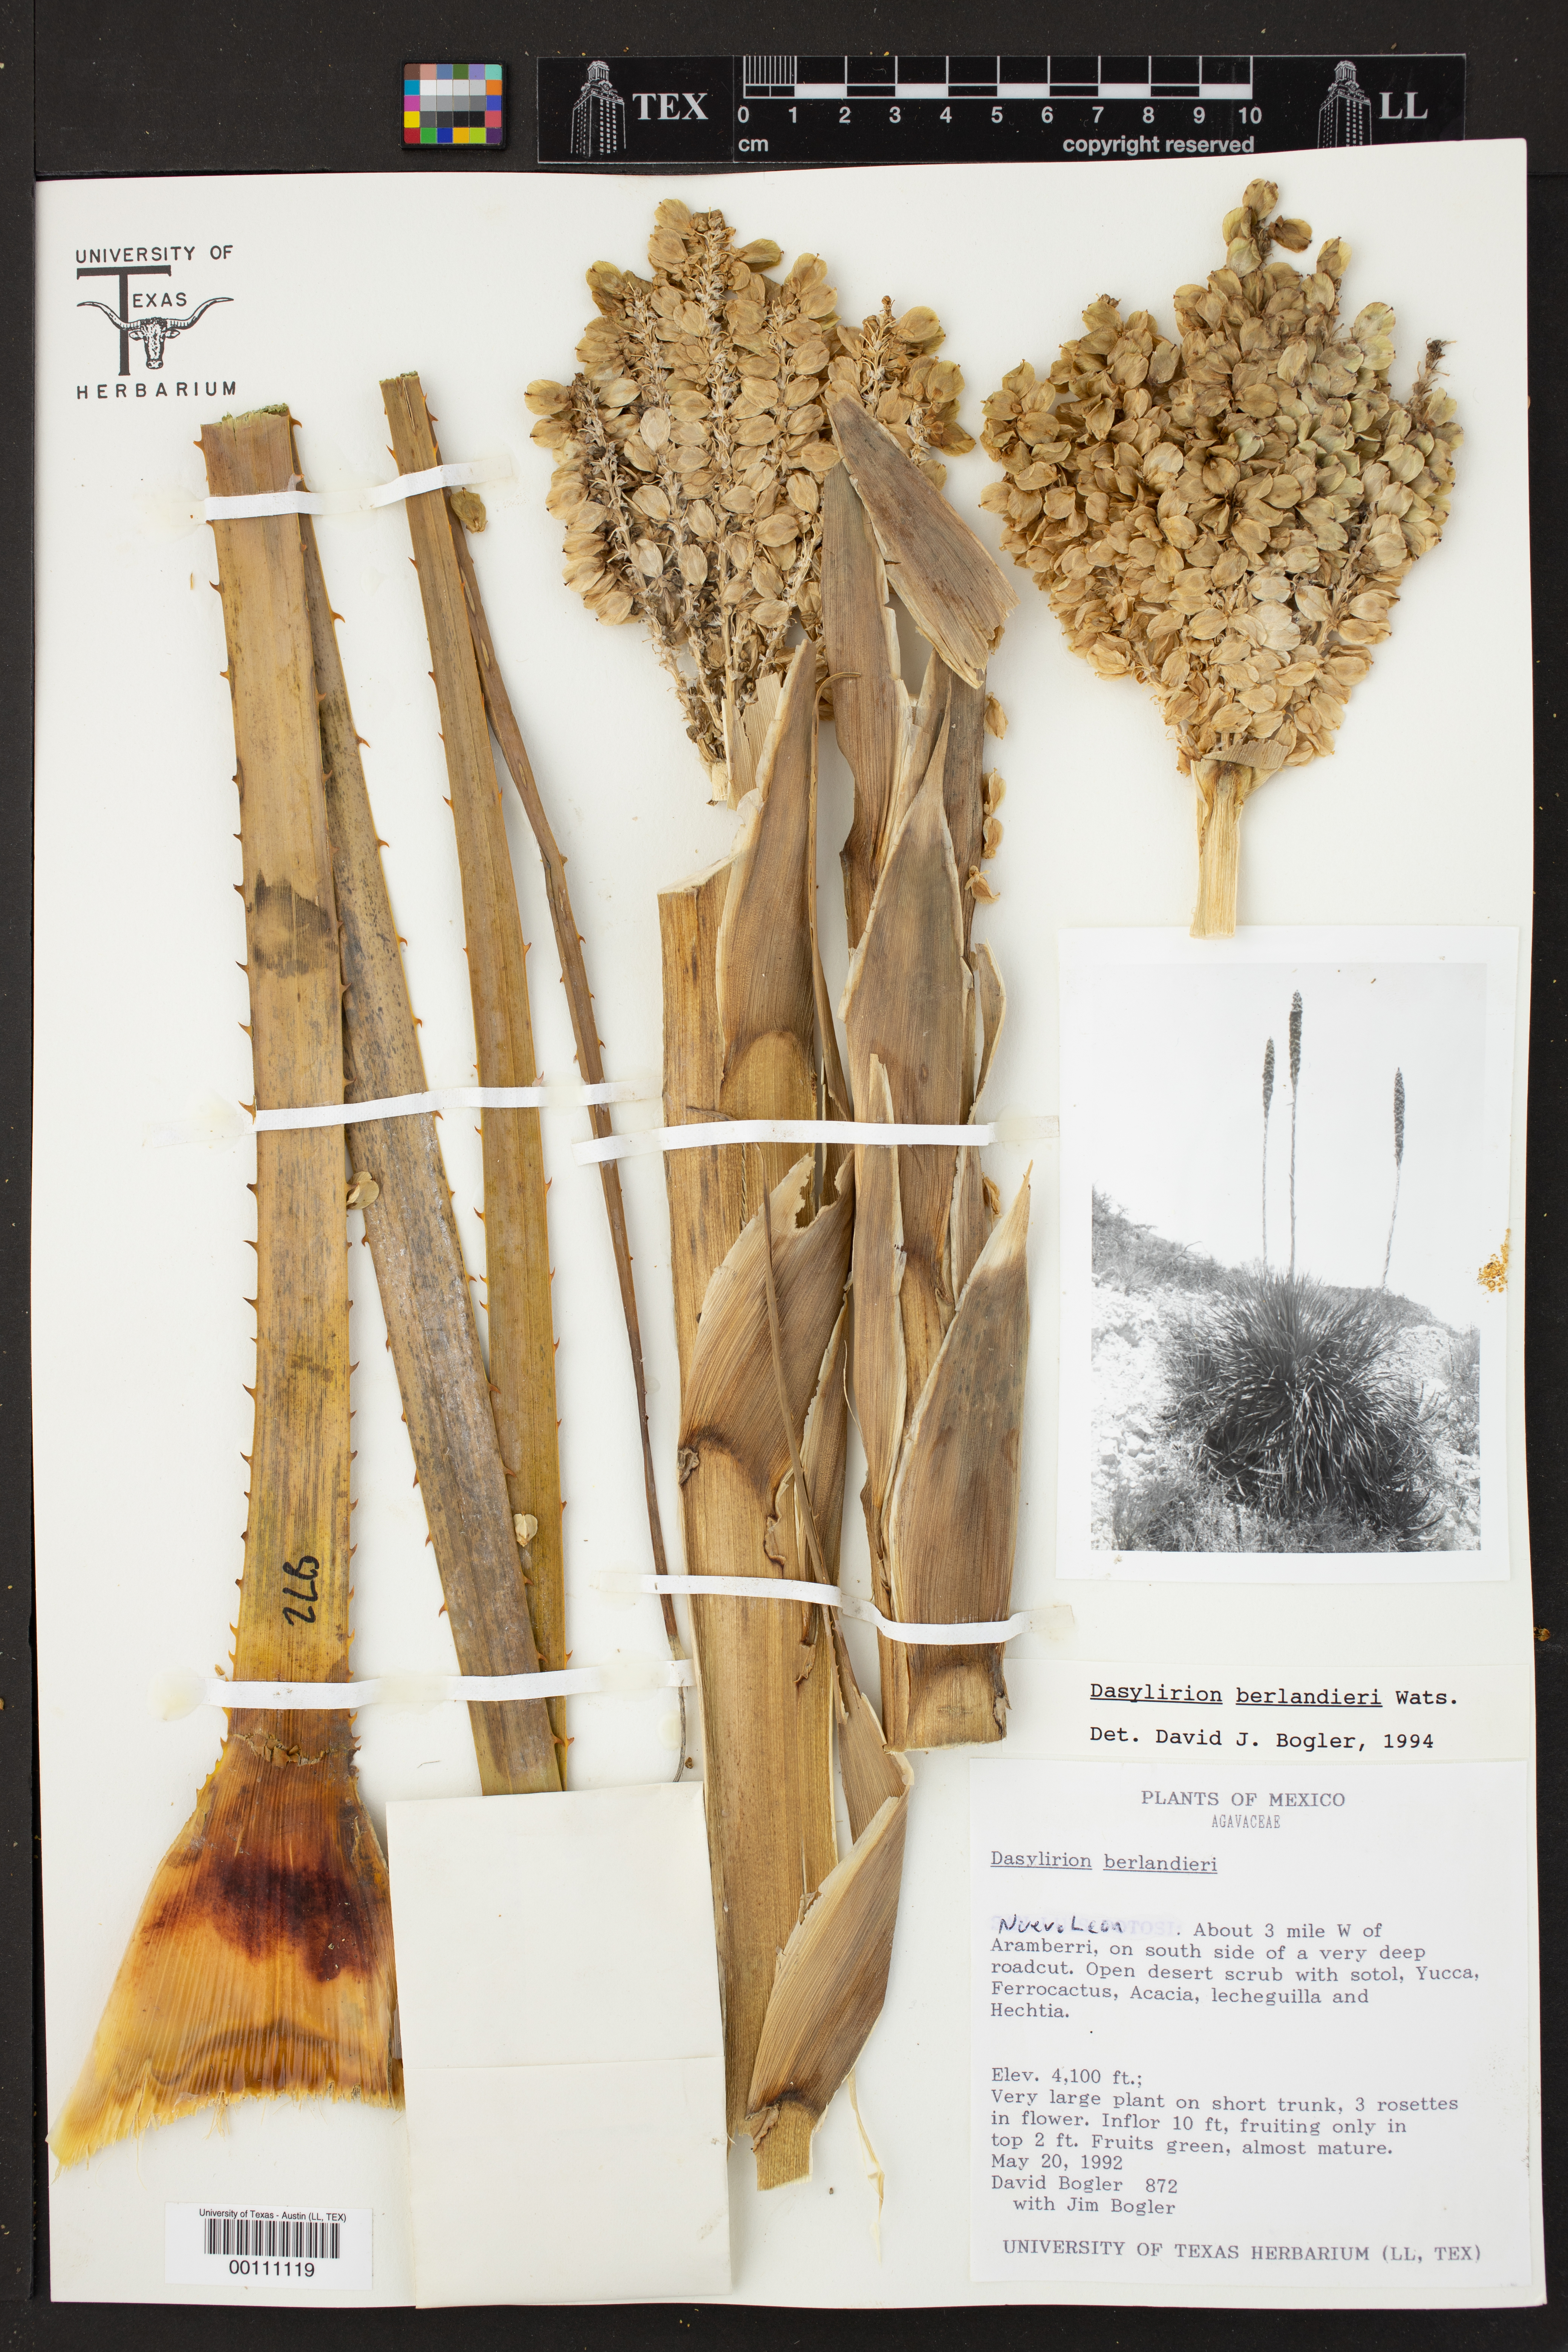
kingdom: Plantae
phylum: Tracheophyta
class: Liliopsida
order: Asparagales
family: Asparagaceae
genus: Dasylirion
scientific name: Dasylirion berlandieri
